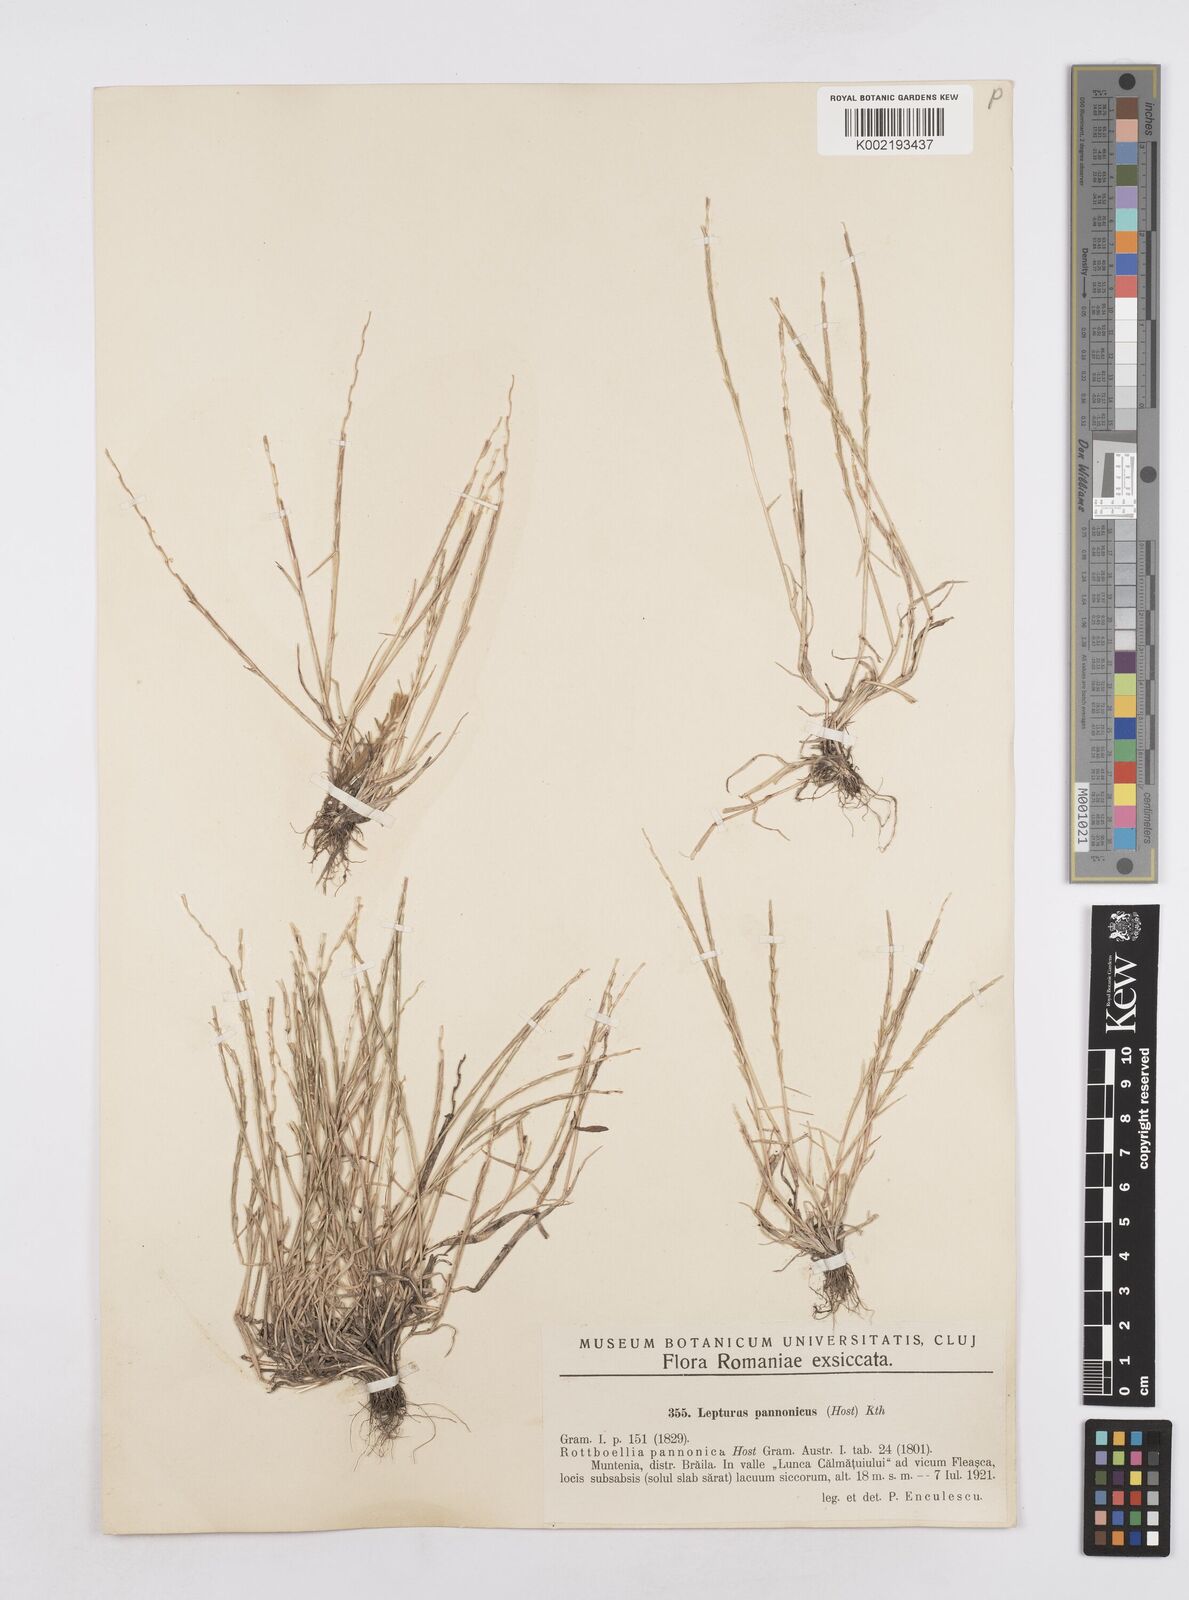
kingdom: Plantae
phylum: Tracheophyta
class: Liliopsida
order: Poales
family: Poaceae
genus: Pholiurus
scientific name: Pholiurus pannonicus
